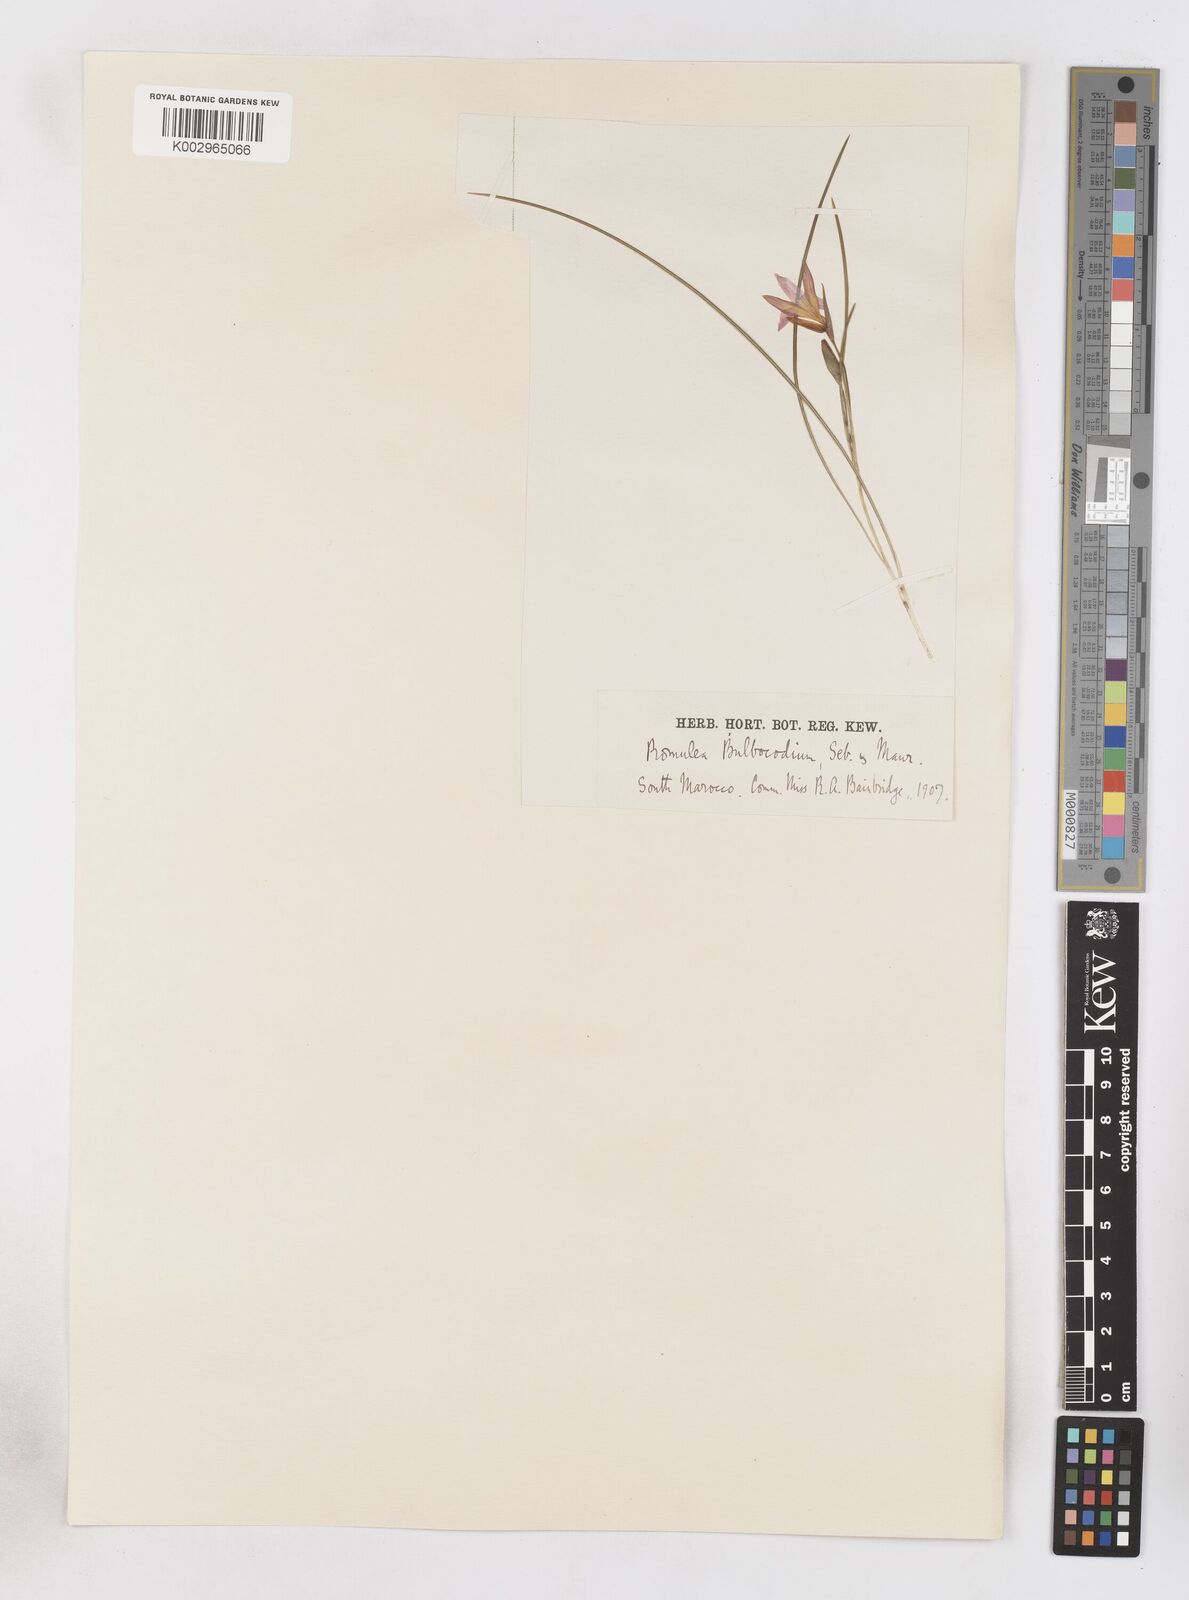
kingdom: Plantae
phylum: Tracheophyta
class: Liliopsida
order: Asparagales
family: Iridaceae
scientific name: Iridaceae
